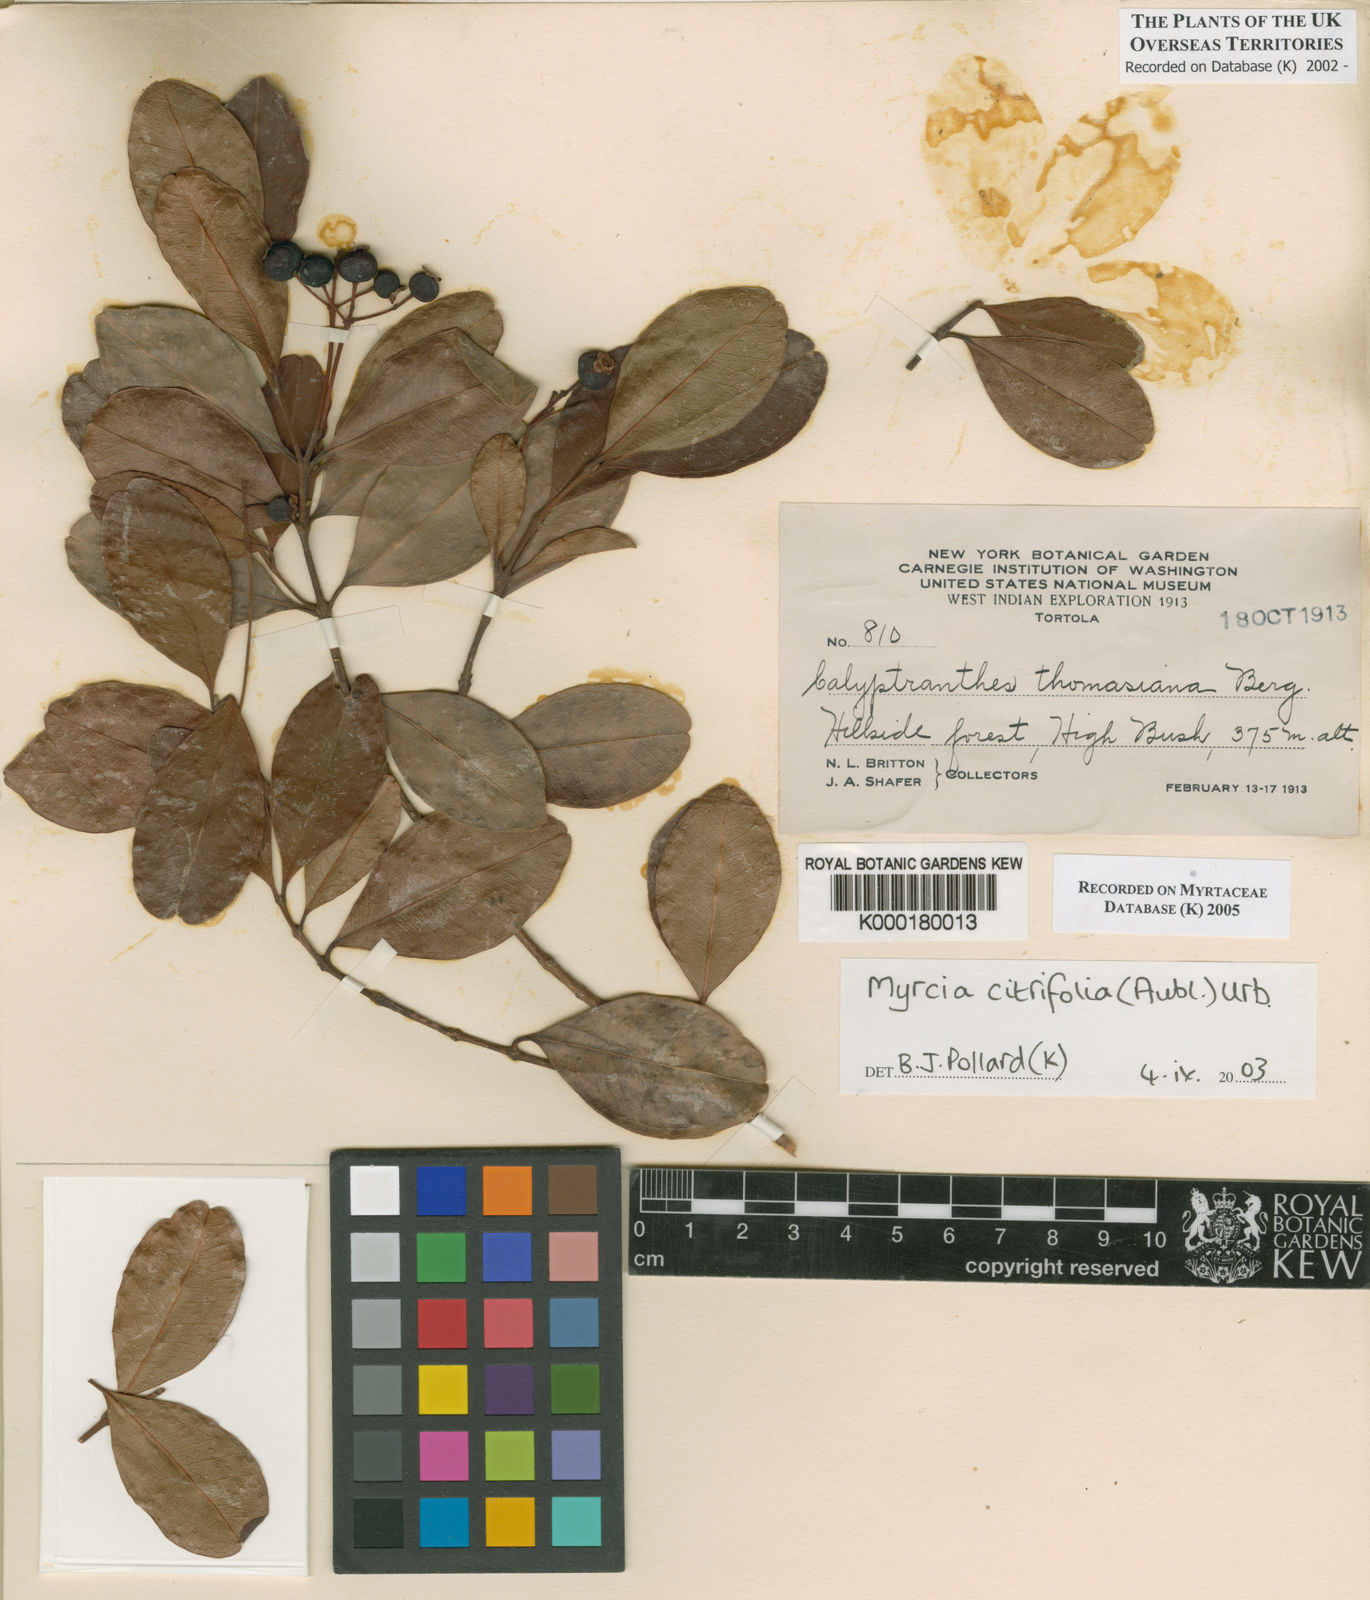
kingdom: Plantae
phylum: Tracheophyta
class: Magnoliopsida
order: Myrtales
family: Myrtaceae
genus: Myrcia
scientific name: Myrcia guianensis
